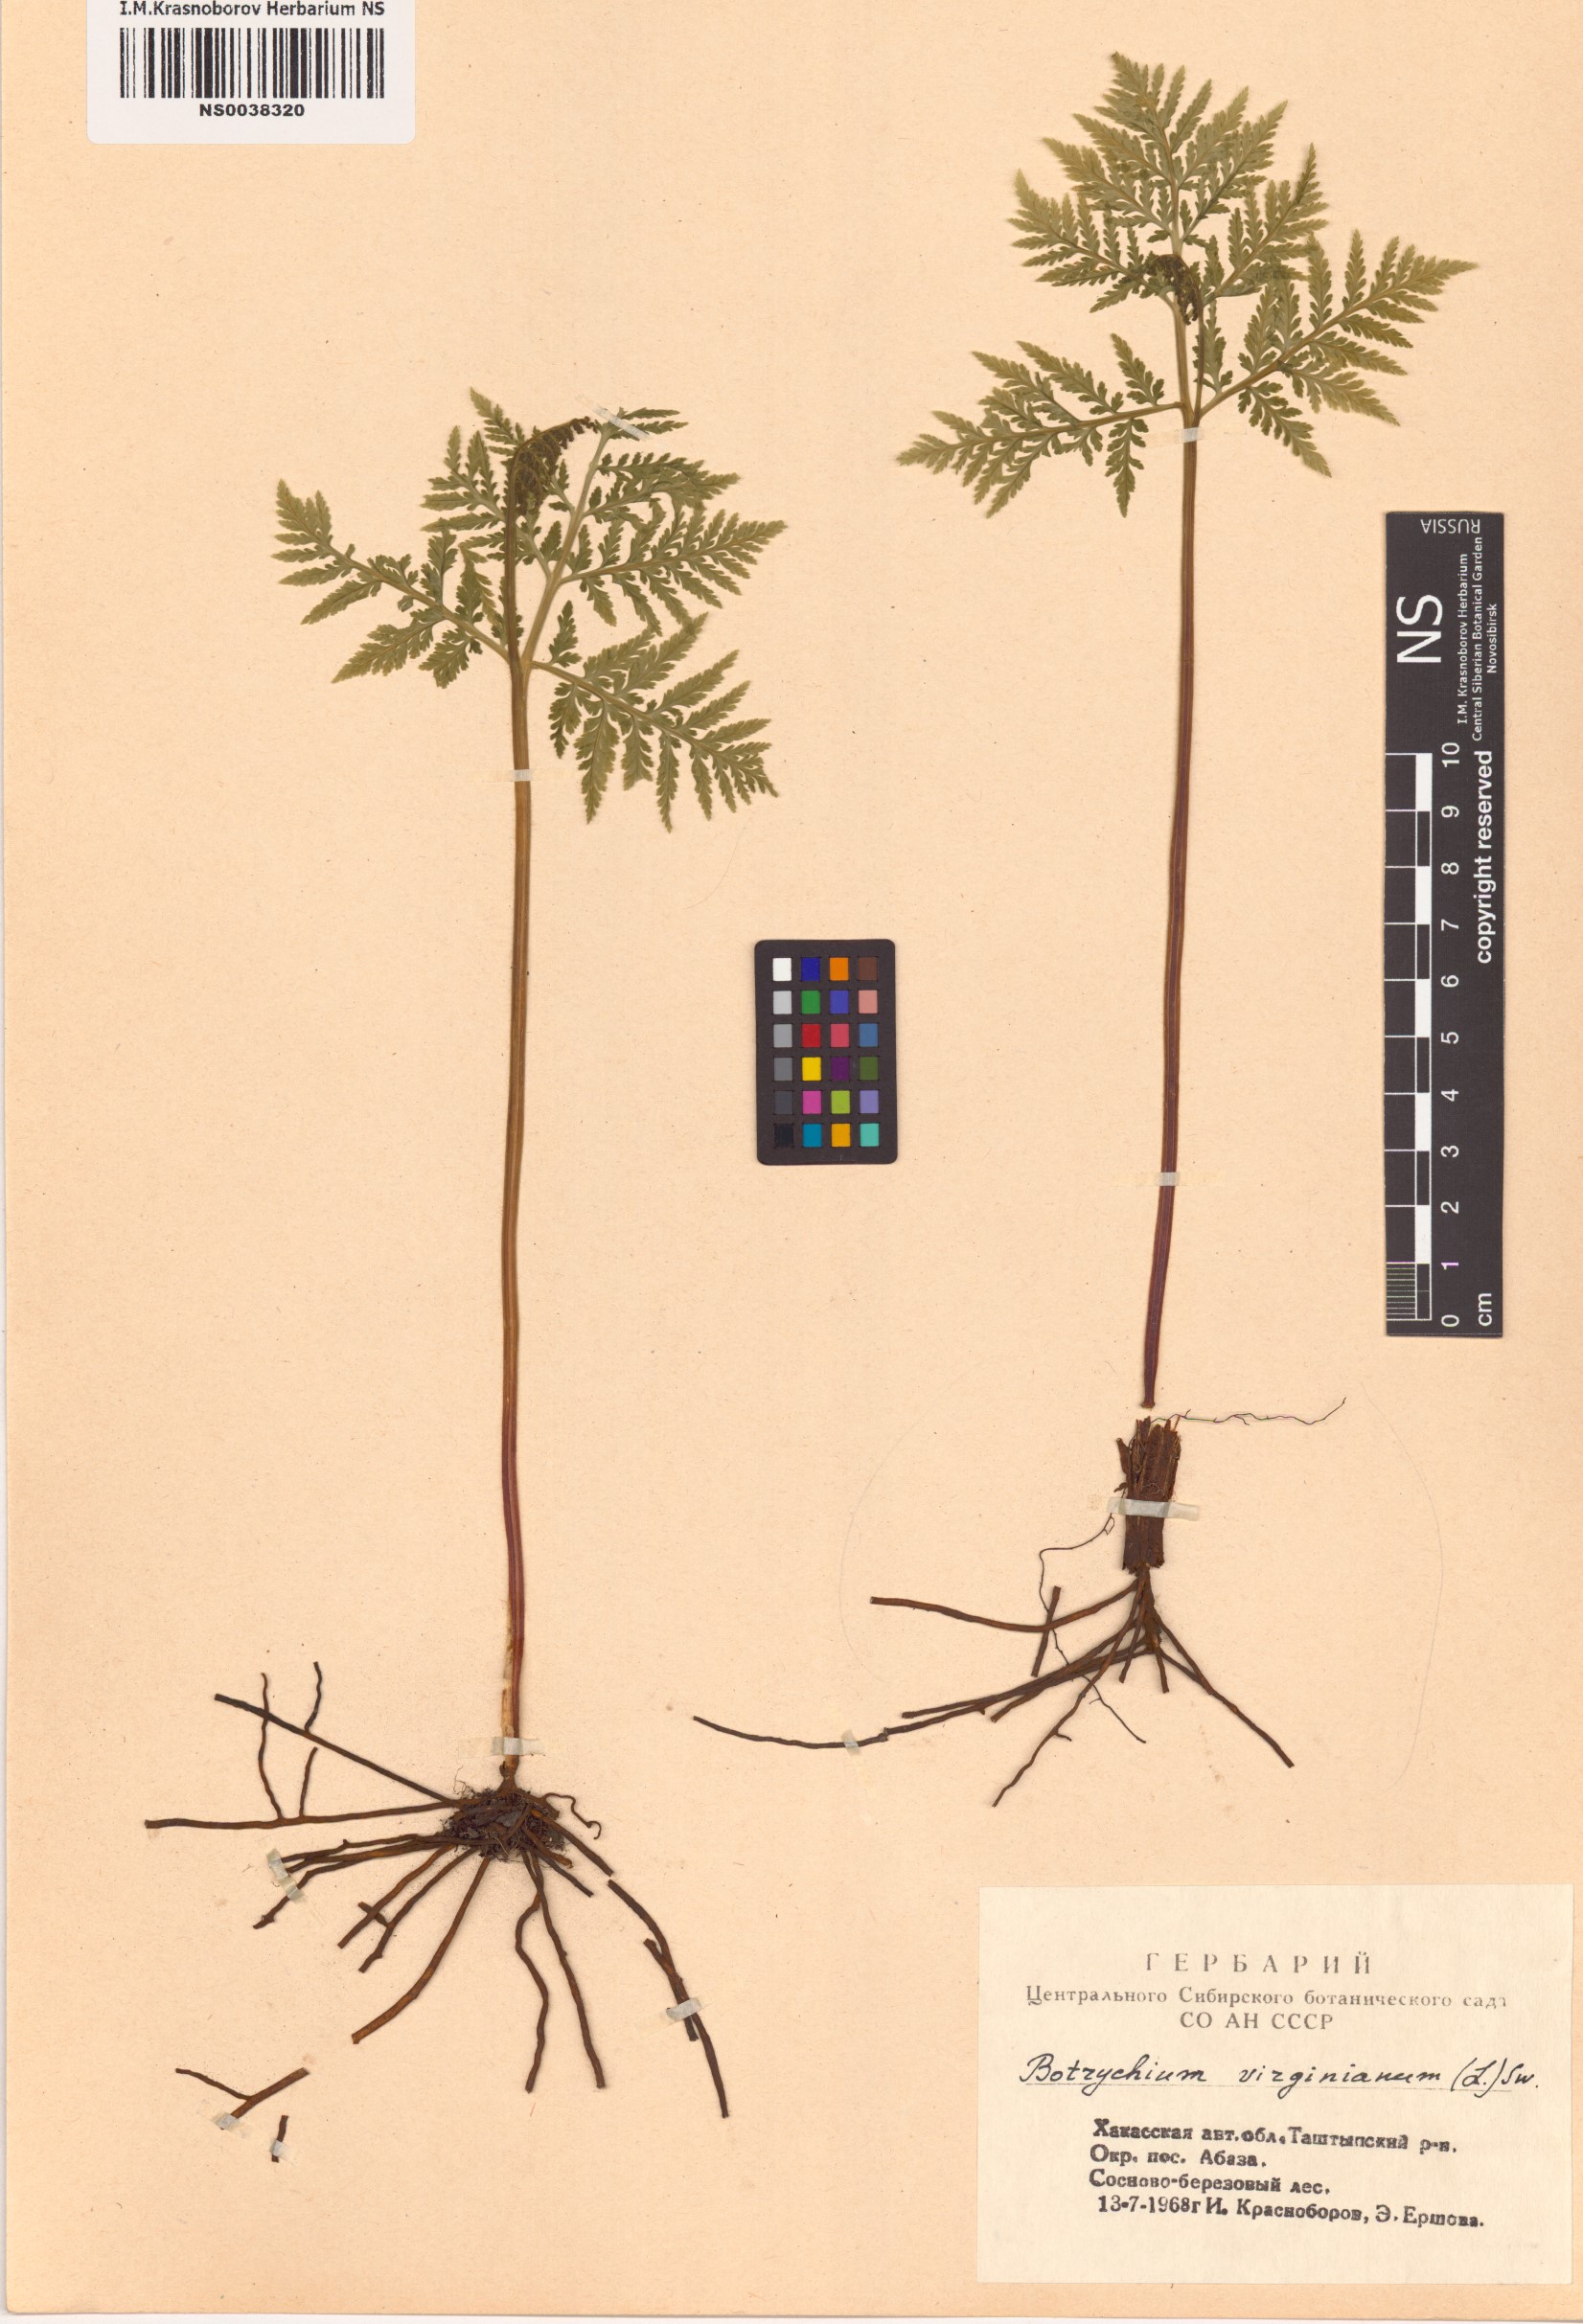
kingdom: Plantae
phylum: Tracheophyta
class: Polypodiopsida
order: Ophioglossales
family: Ophioglossaceae
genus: Botrypus
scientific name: Botrypus virginianus
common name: Common grapefern
